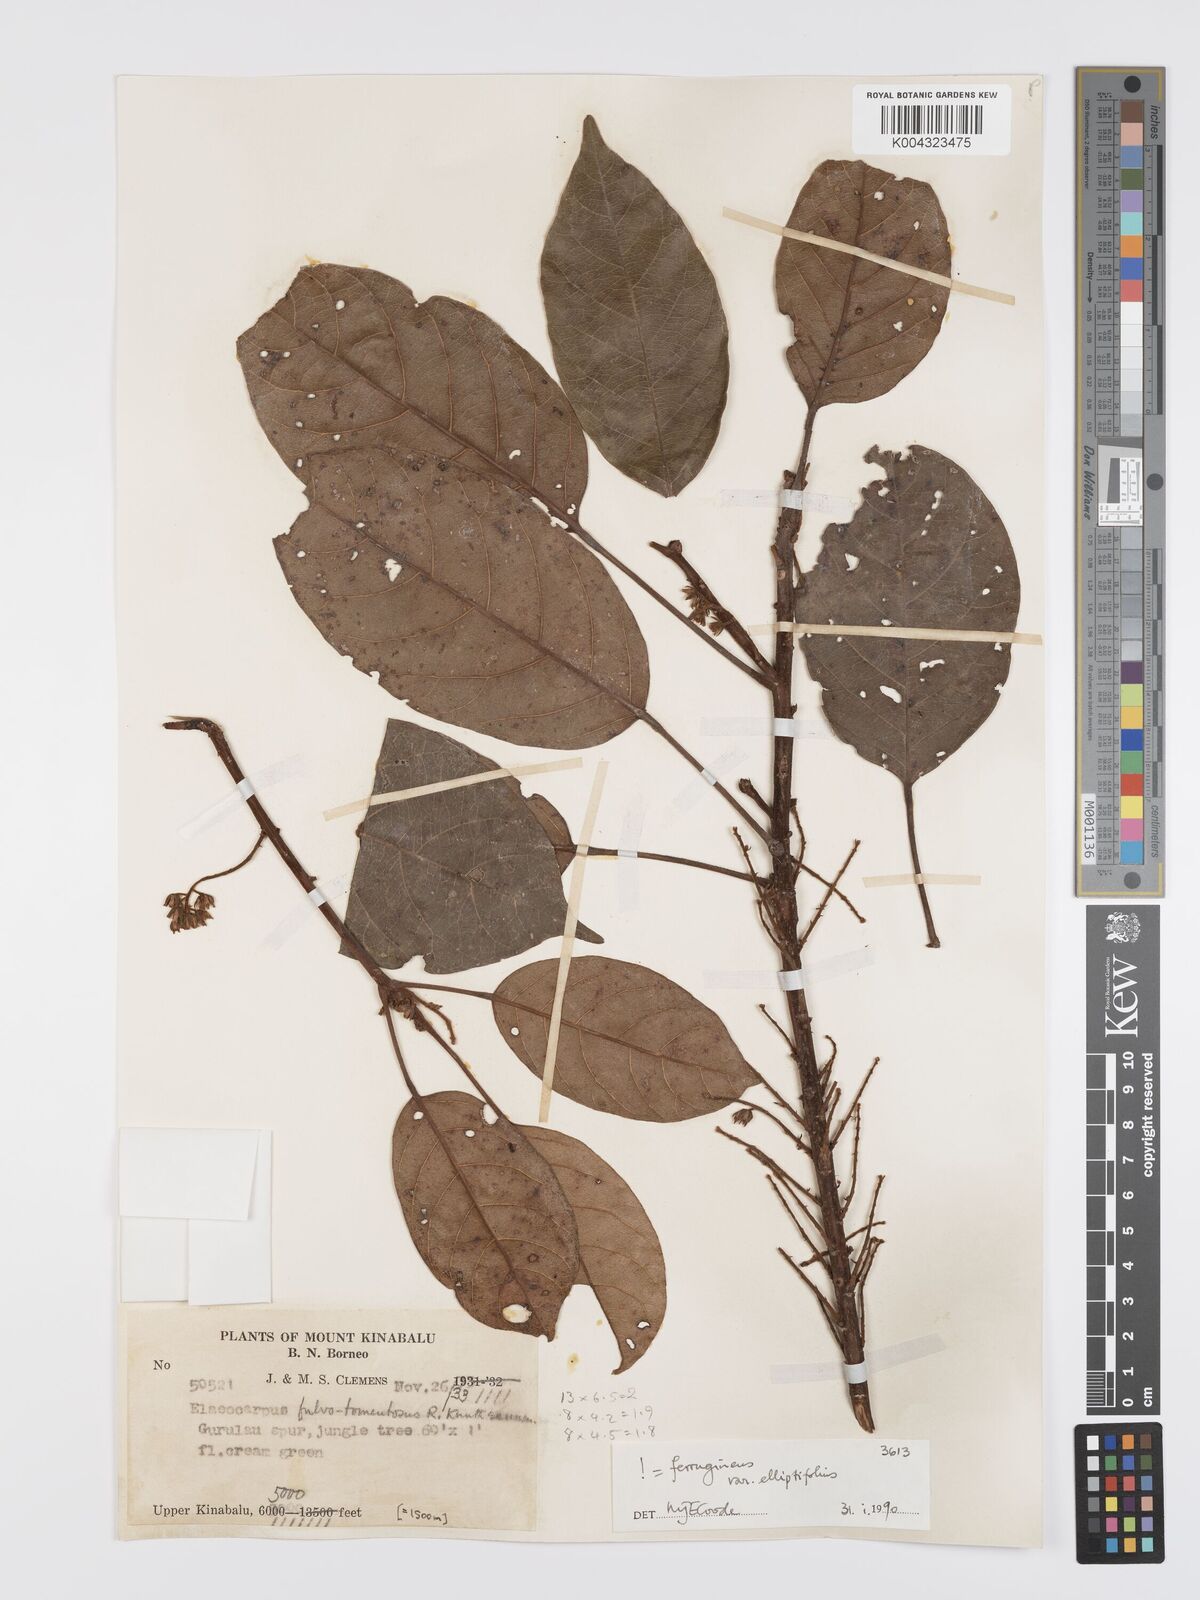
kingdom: Plantae
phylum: Tracheophyta
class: Magnoliopsida
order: Oxalidales
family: Elaeocarpaceae
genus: Elaeocarpus
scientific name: Elaeocarpus ferrugineus
